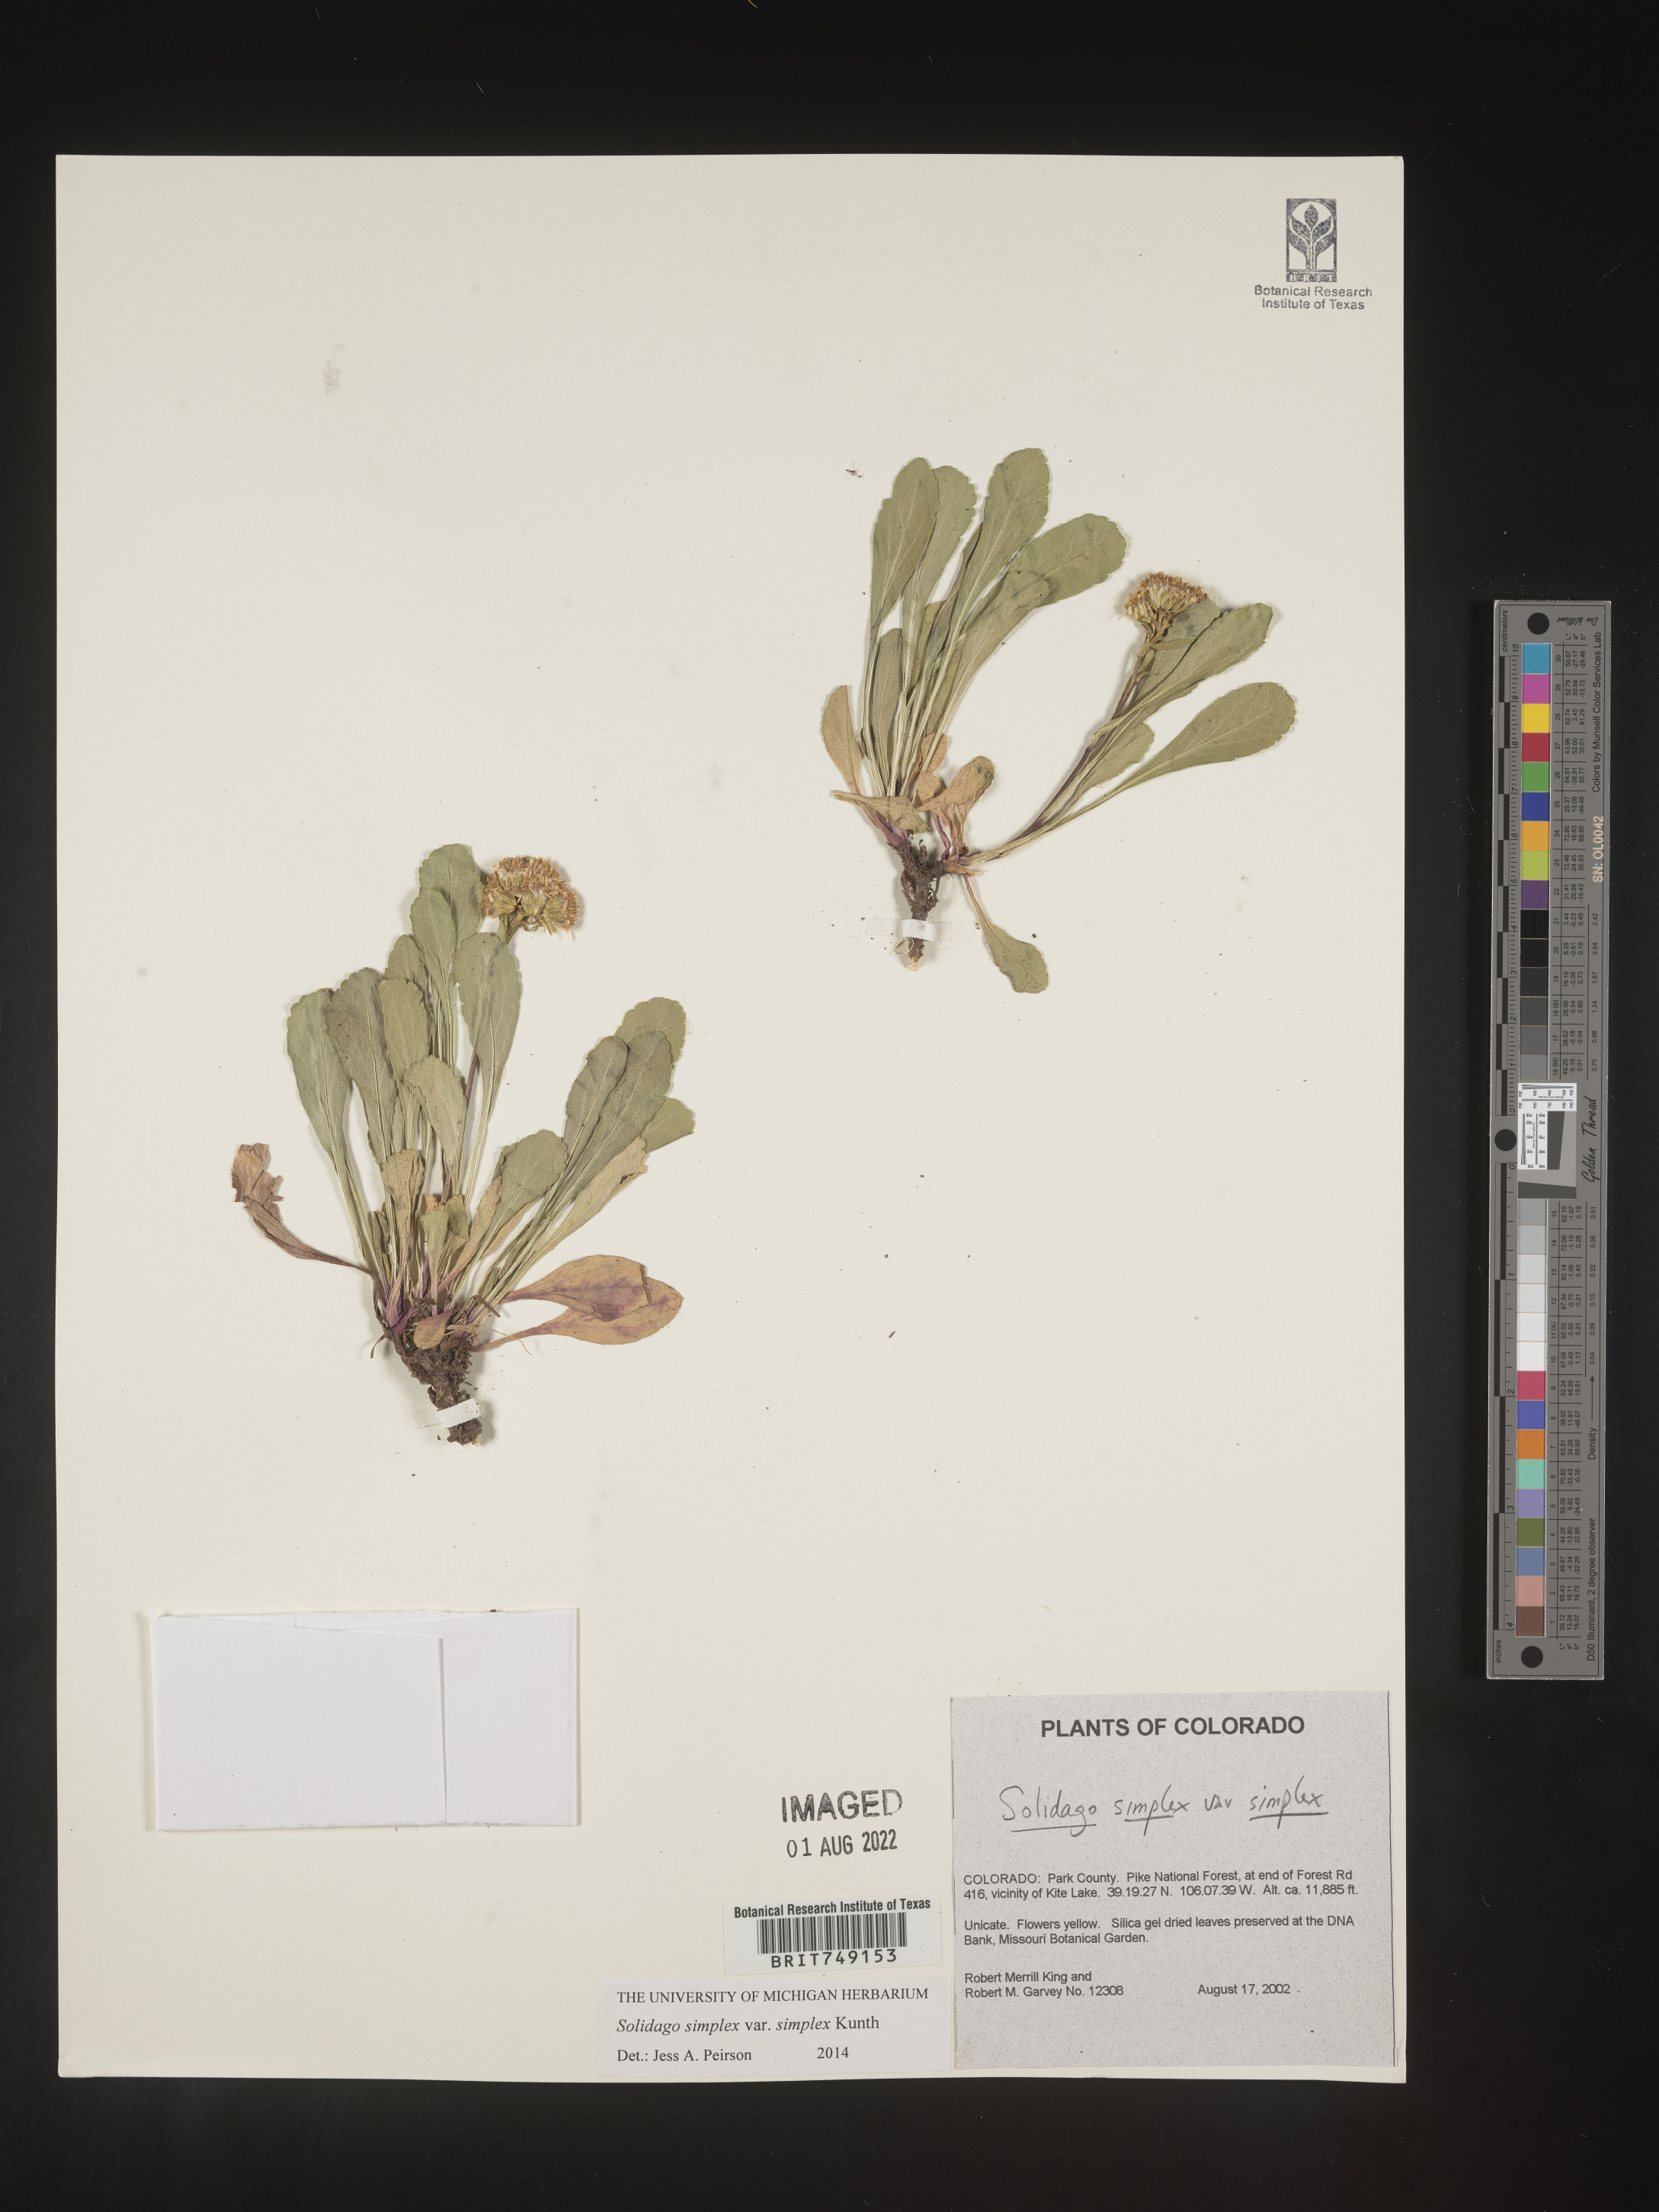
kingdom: Plantae
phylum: Tracheophyta
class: Magnoliopsida
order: Asterales
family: Asteraceae
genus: Solidago
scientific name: Solidago simplex
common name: Sticky goldenrod
